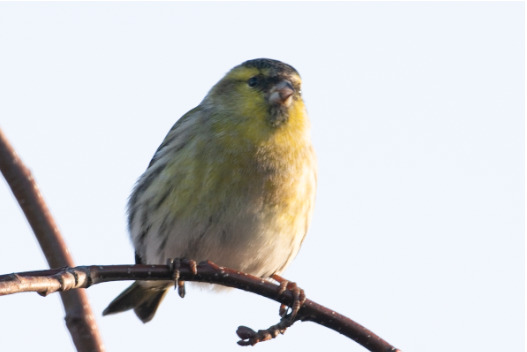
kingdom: Animalia
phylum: Chordata
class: Aves
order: Passeriformes
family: Fringillidae
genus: Spinus
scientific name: Spinus spinus
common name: Grønsisken
